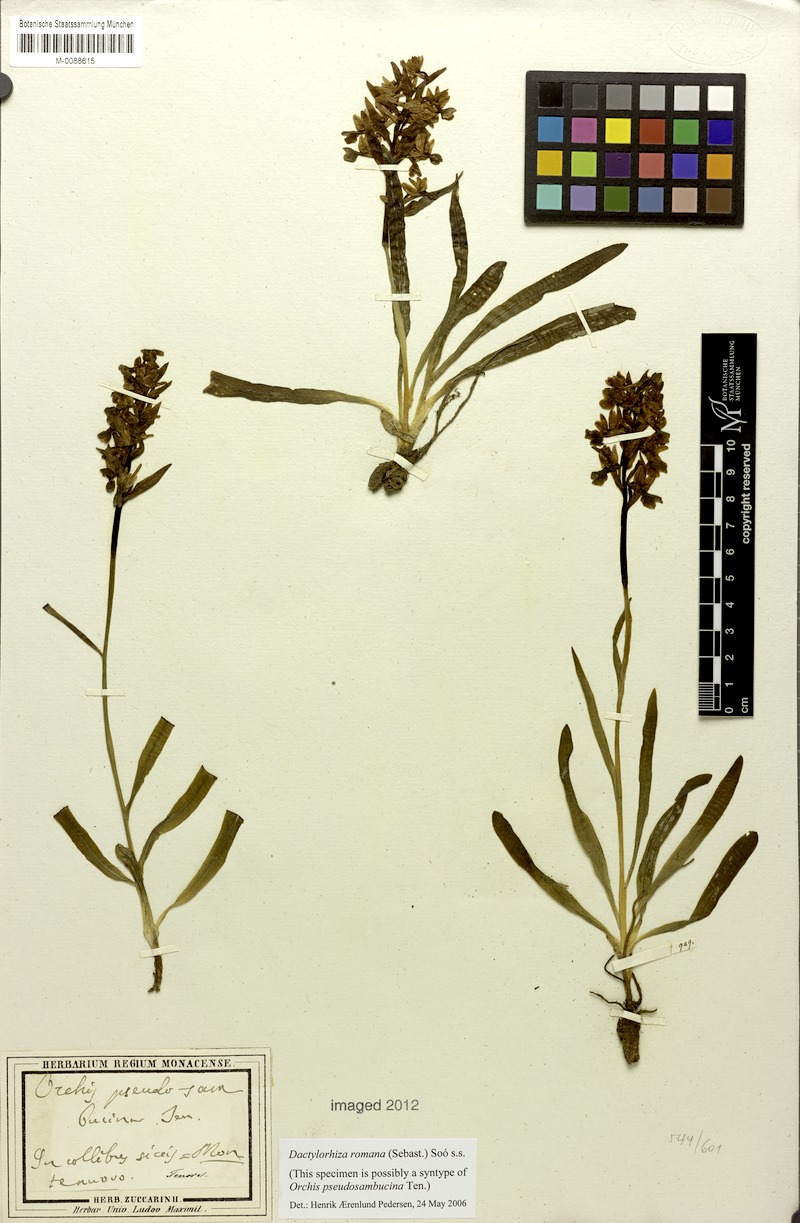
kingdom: Plantae
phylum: Tracheophyta
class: Liliopsida
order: Asparagales
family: Orchidaceae
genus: Dactylorhiza
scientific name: Dactylorhiza romana
